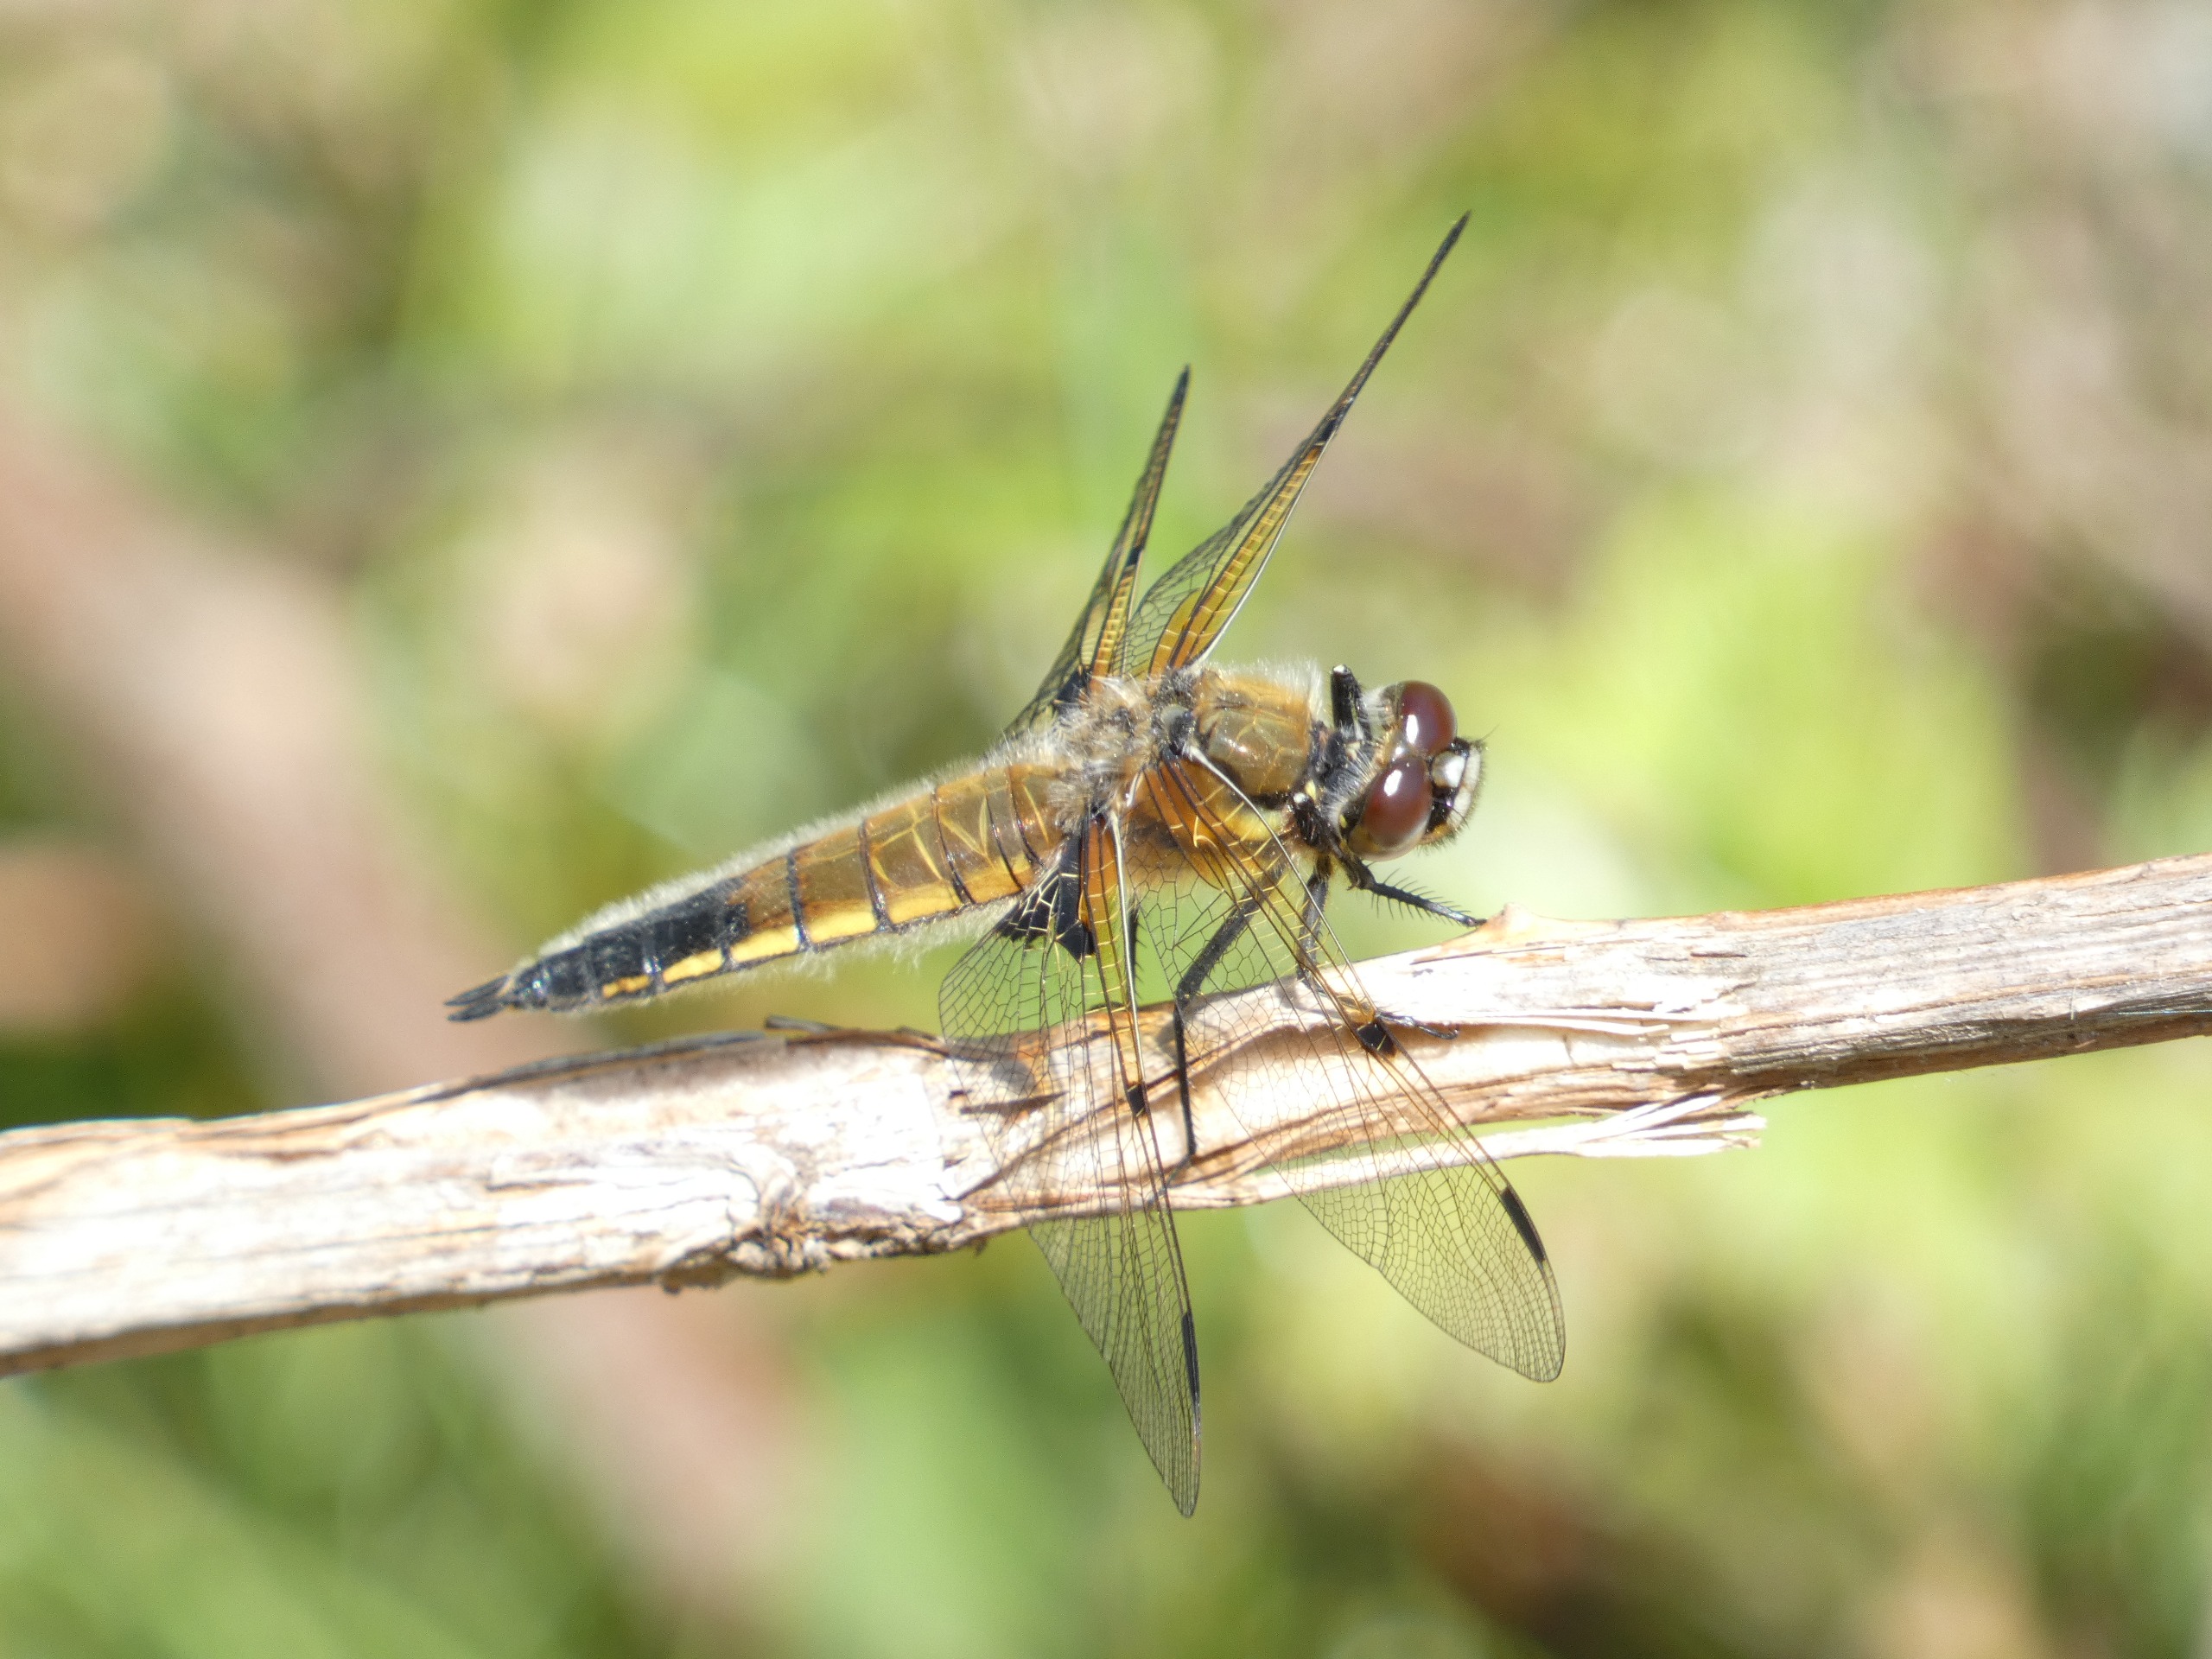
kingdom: Animalia
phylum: Arthropoda
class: Insecta
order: Odonata
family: Libellulidae
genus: Libellula
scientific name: Libellula quadrimaculata
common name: Fireplettet libel
